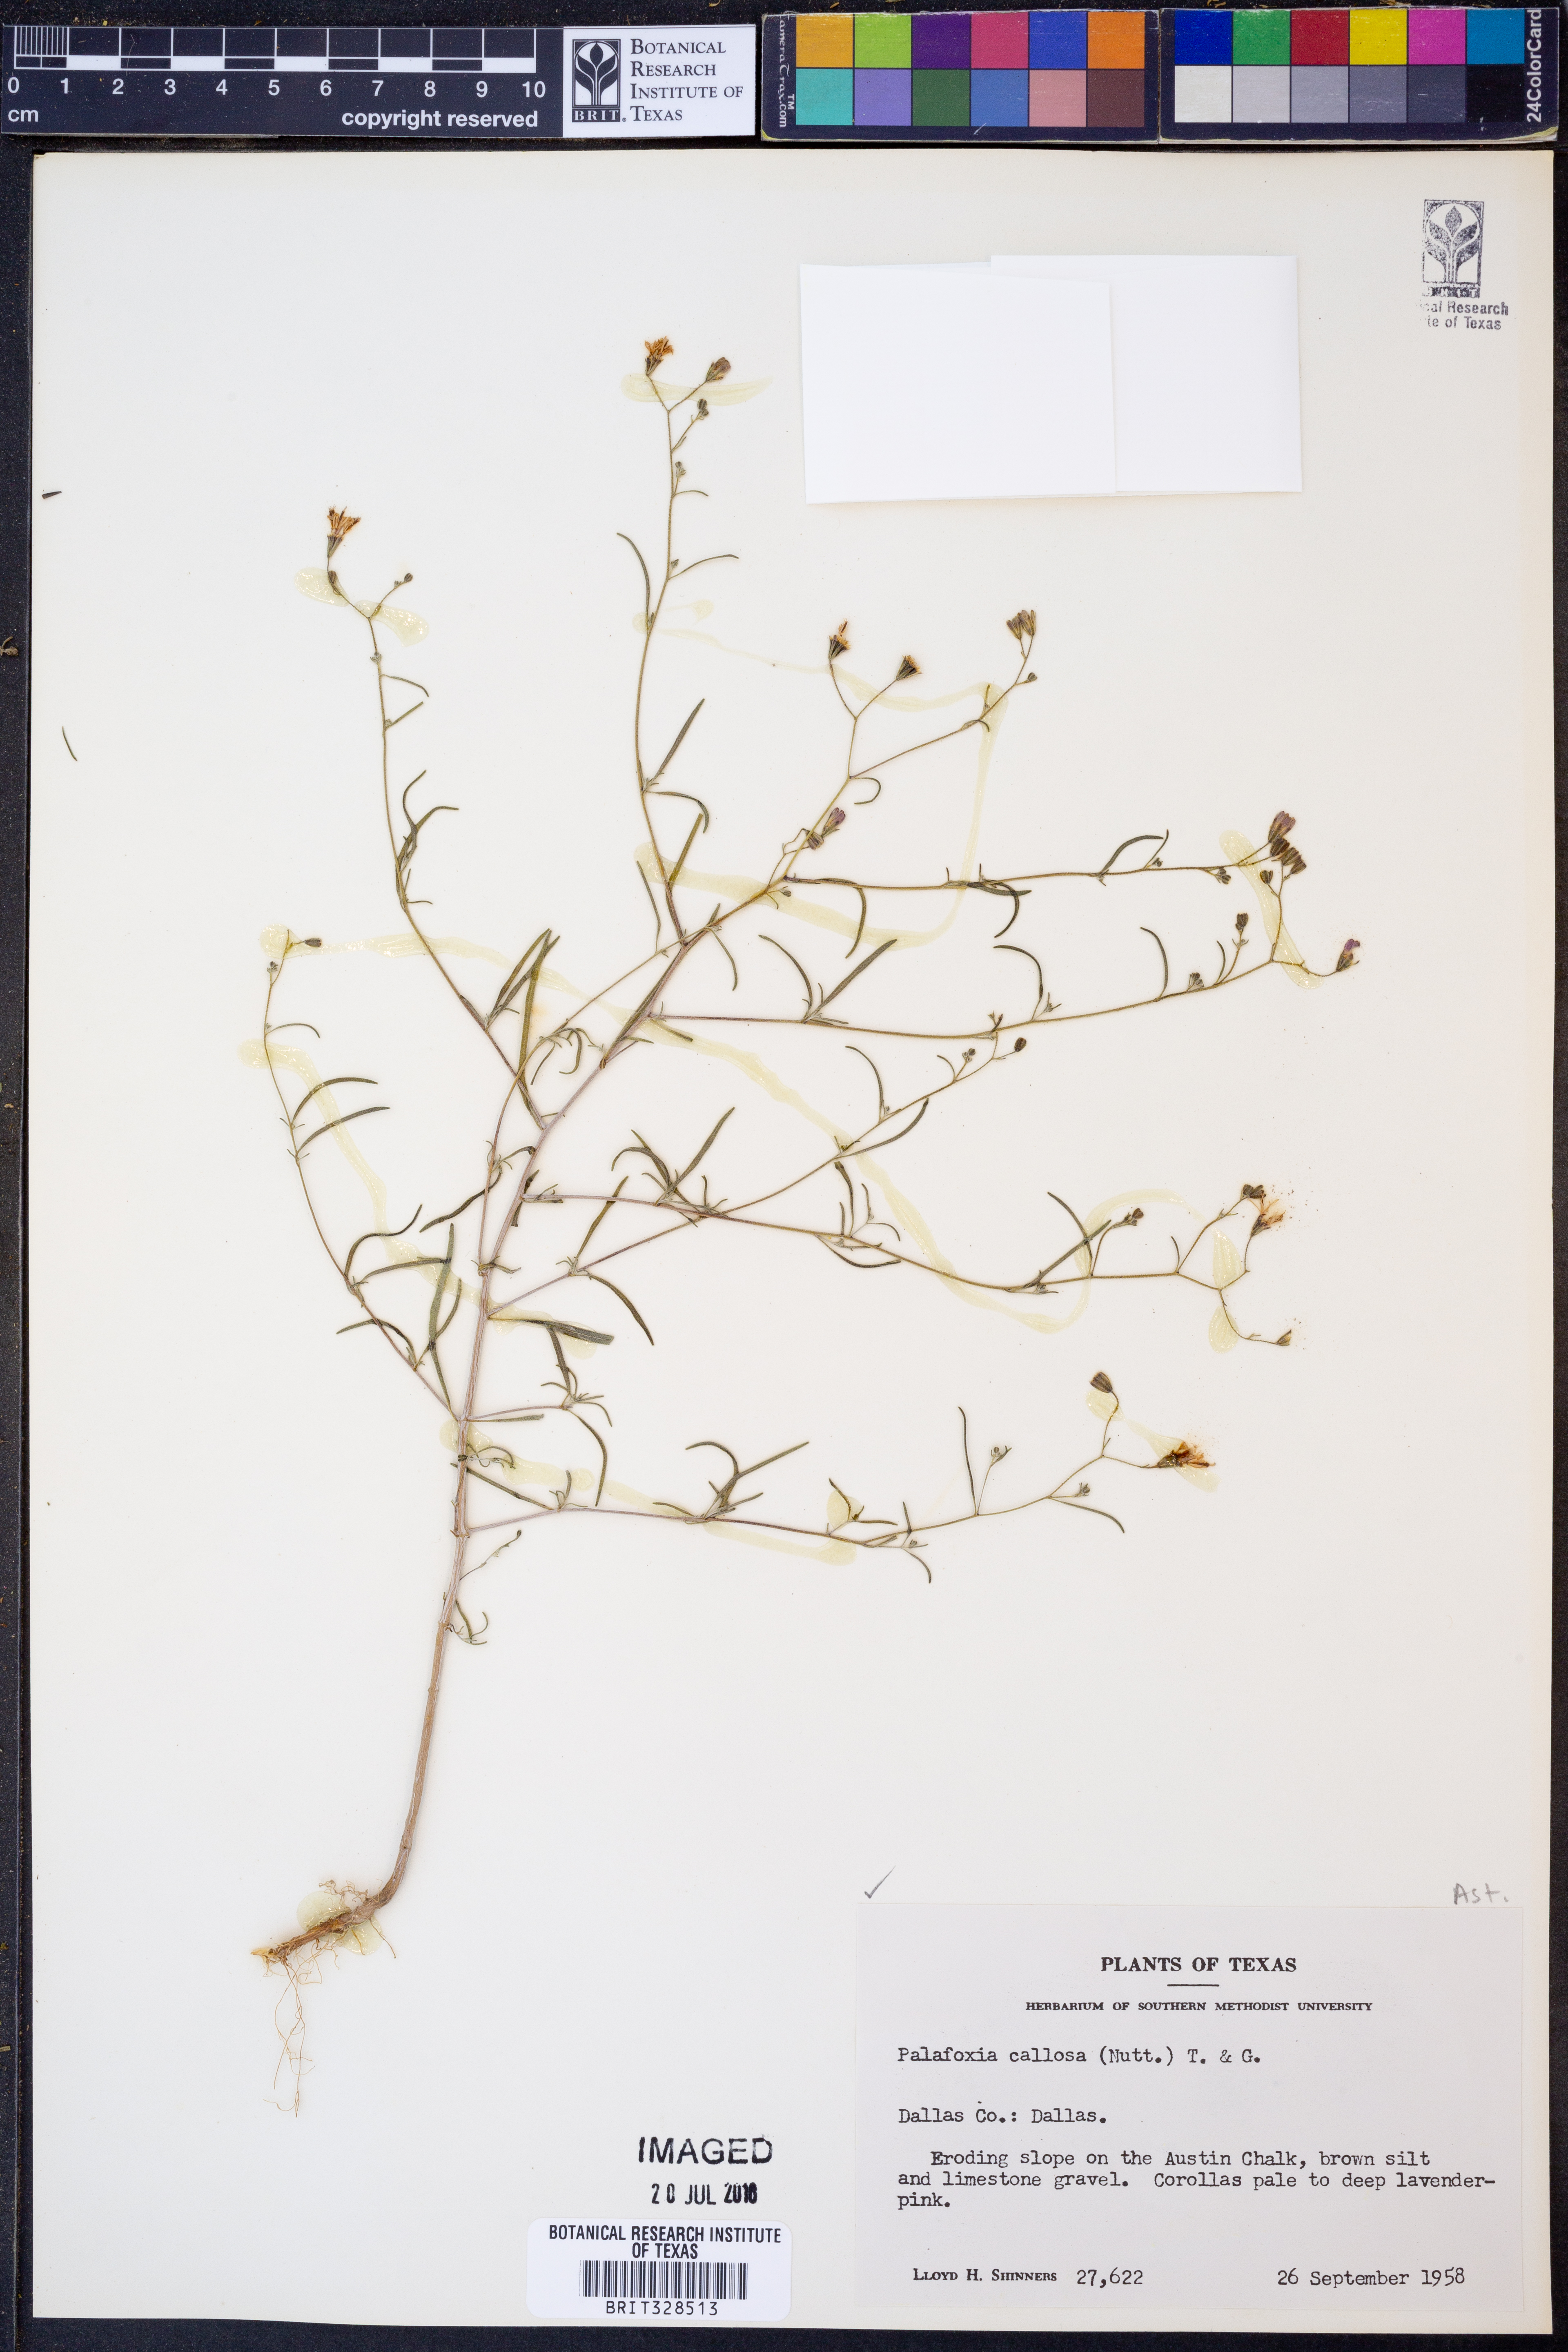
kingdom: Plantae
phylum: Tracheophyta
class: Magnoliopsida
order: Asterales
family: Asteraceae
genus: Palafoxia
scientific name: Palafoxia callosa
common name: Small palafox
